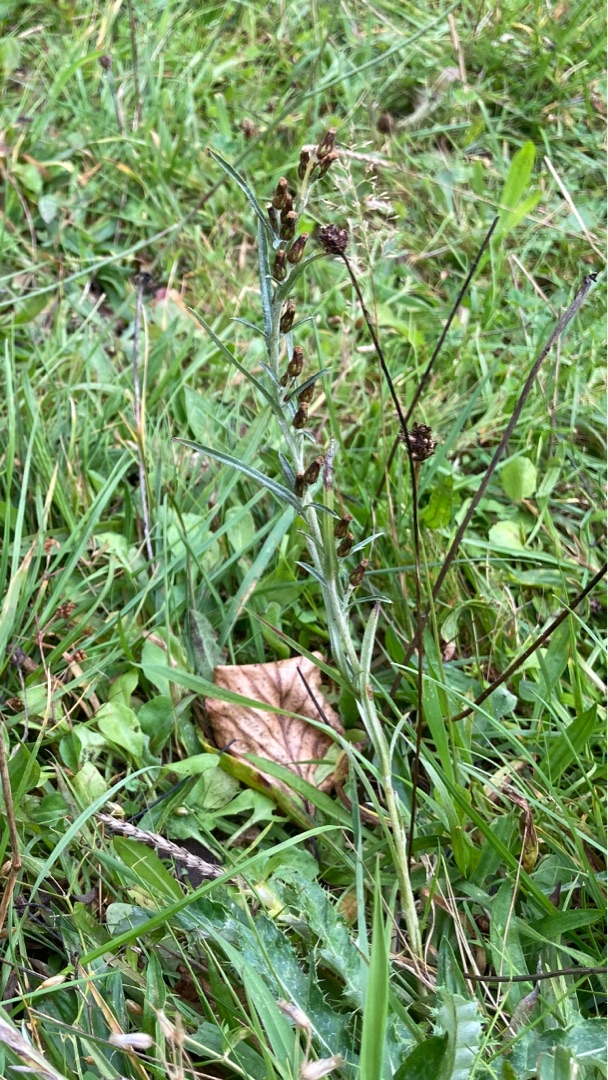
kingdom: Plantae
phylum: Tracheophyta
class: Magnoliopsida
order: Asterales
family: Asteraceae
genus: Omalotheca
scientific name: Omalotheca sylvatica
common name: Rank evighedsblomst
